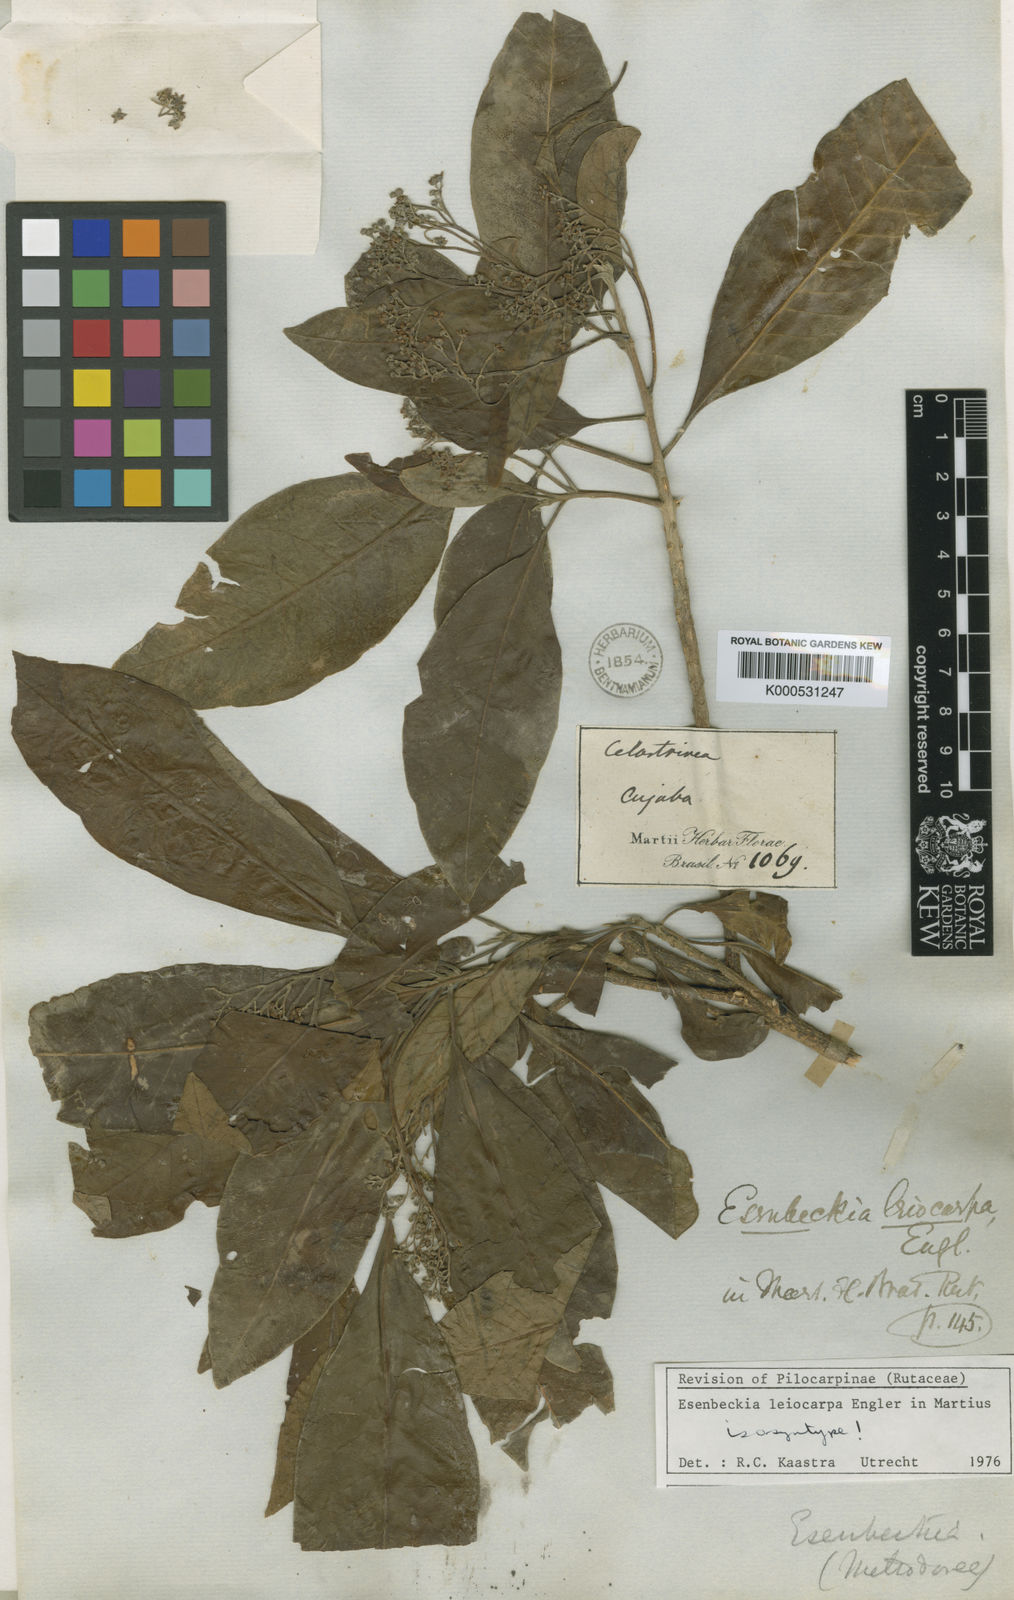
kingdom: Plantae
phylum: Tracheophyta
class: Magnoliopsida
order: Sapindales
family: Rutaceae
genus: Esenbeckia
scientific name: Esenbeckia leiocarpa
